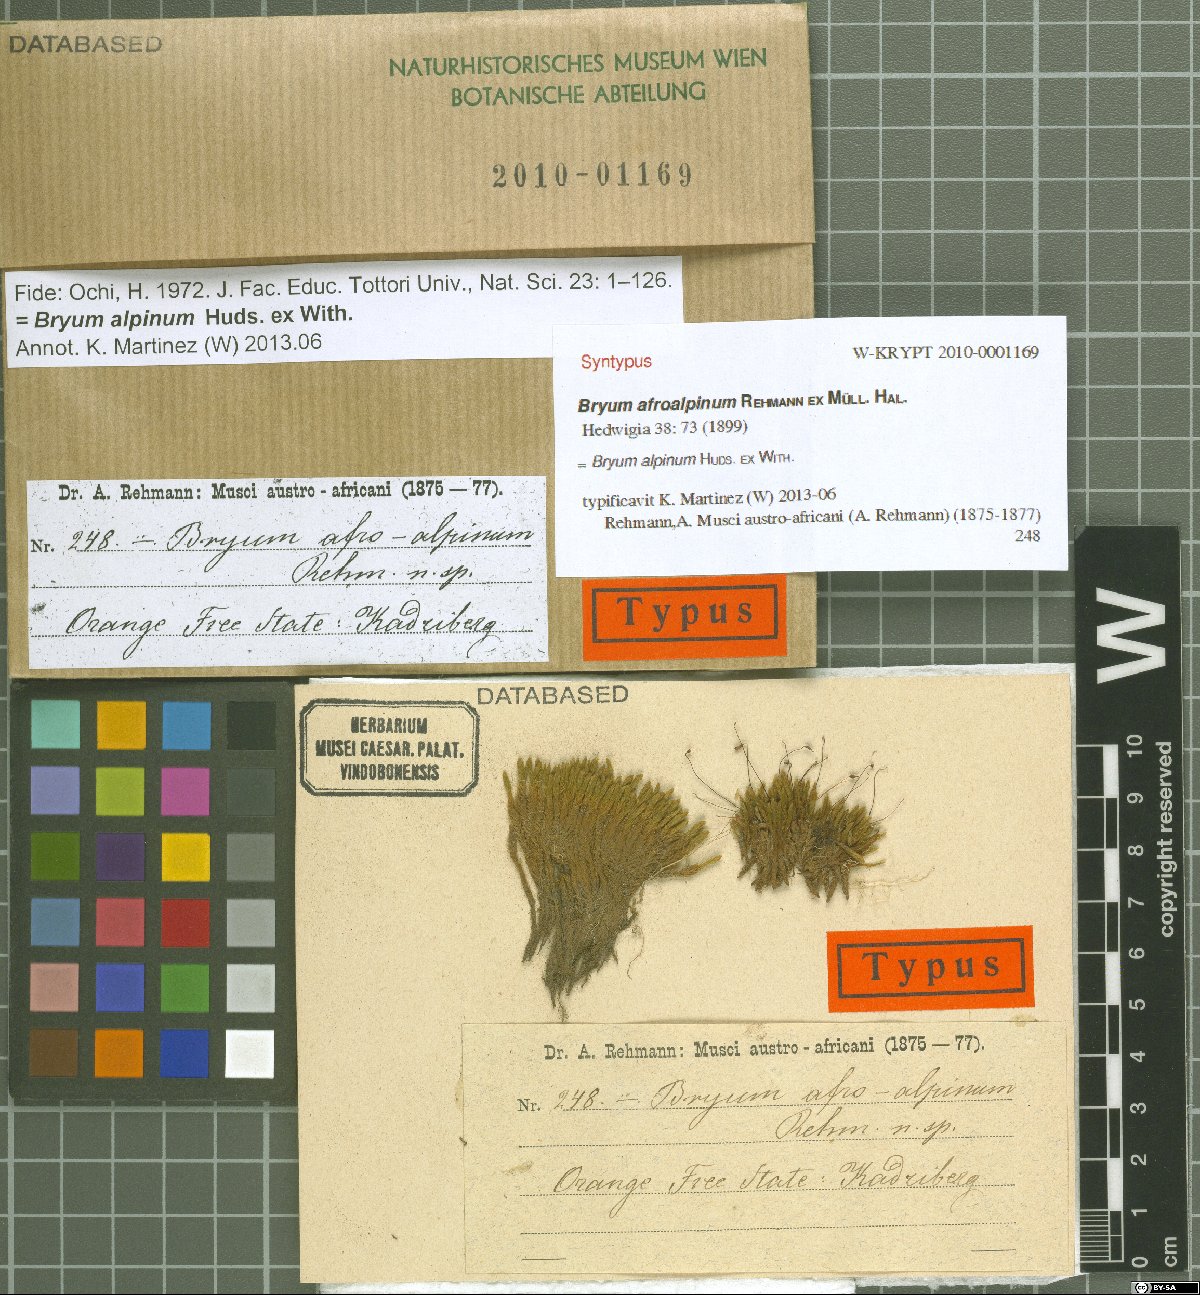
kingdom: Plantae
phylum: Bryophyta
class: Bryopsida
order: Bryales
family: Bryaceae
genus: Imbribryum
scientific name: Imbribryum alpinum
